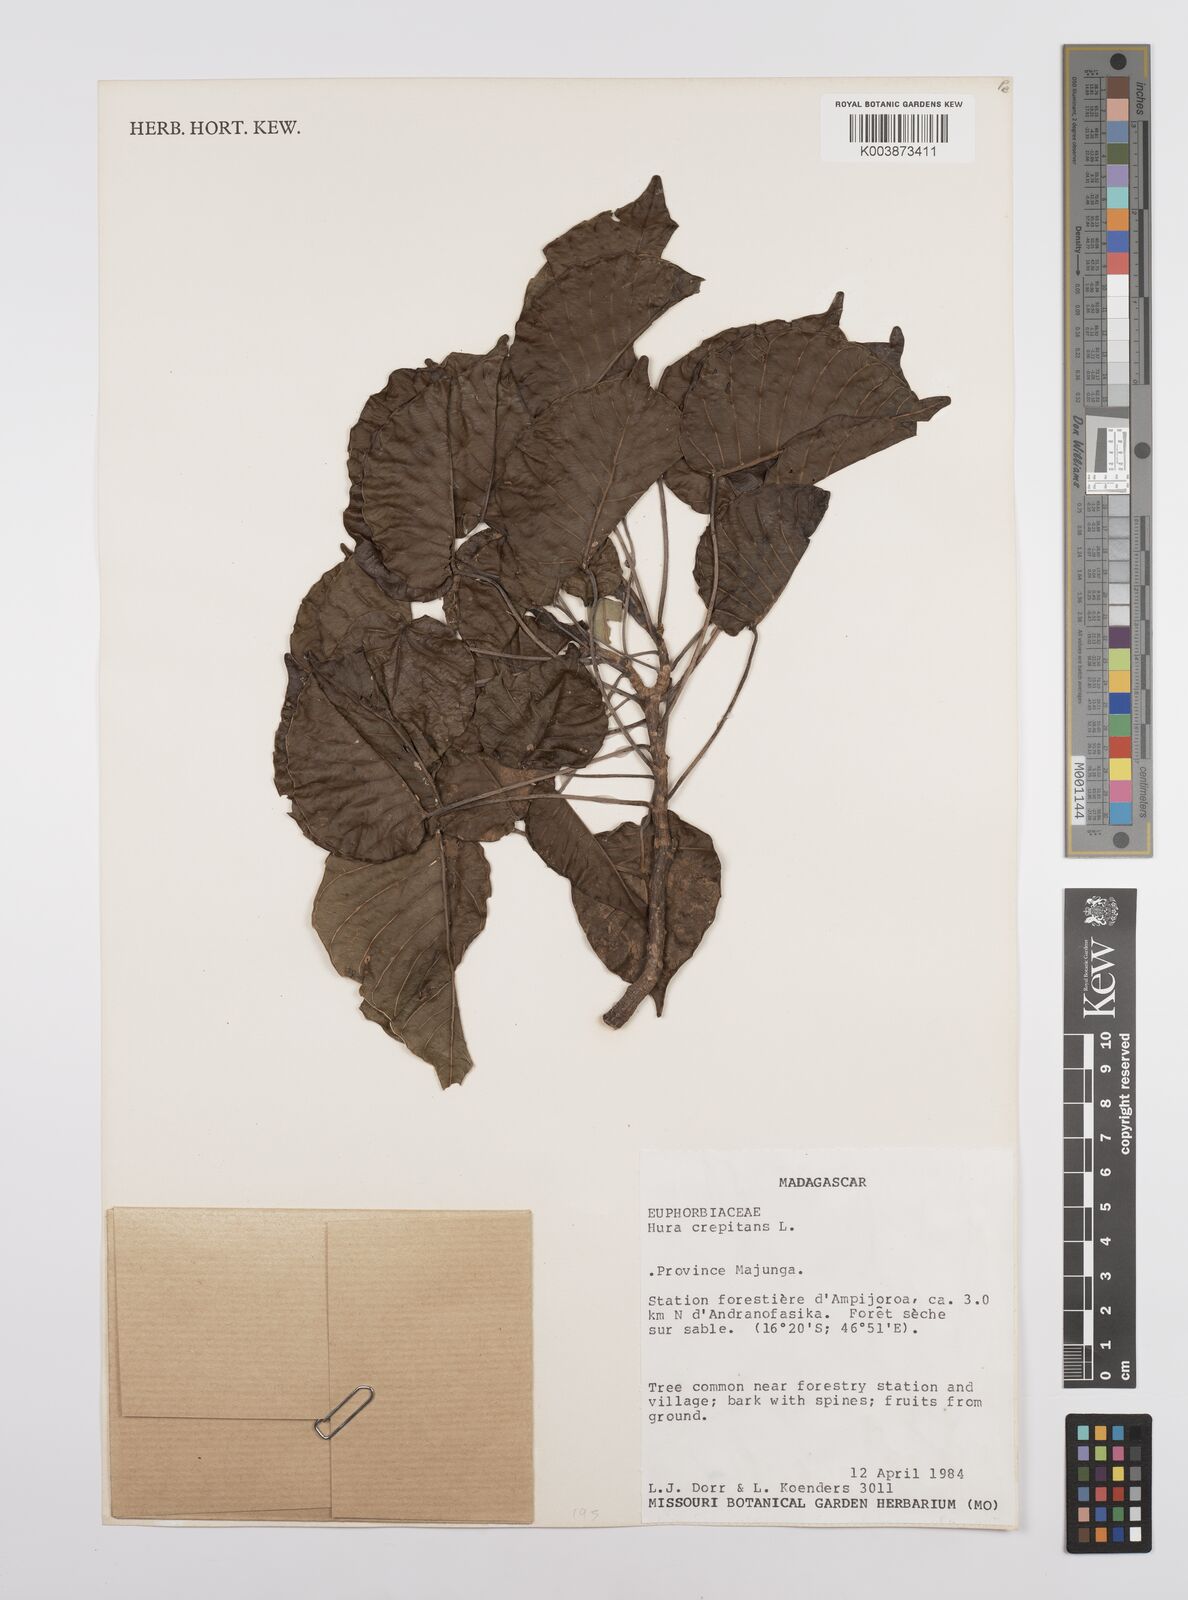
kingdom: Plantae
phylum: Tracheophyta
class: Magnoliopsida
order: Malpighiales
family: Euphorbiaceae
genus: Hura
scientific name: Hura crepitans
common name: Sandboxtree
